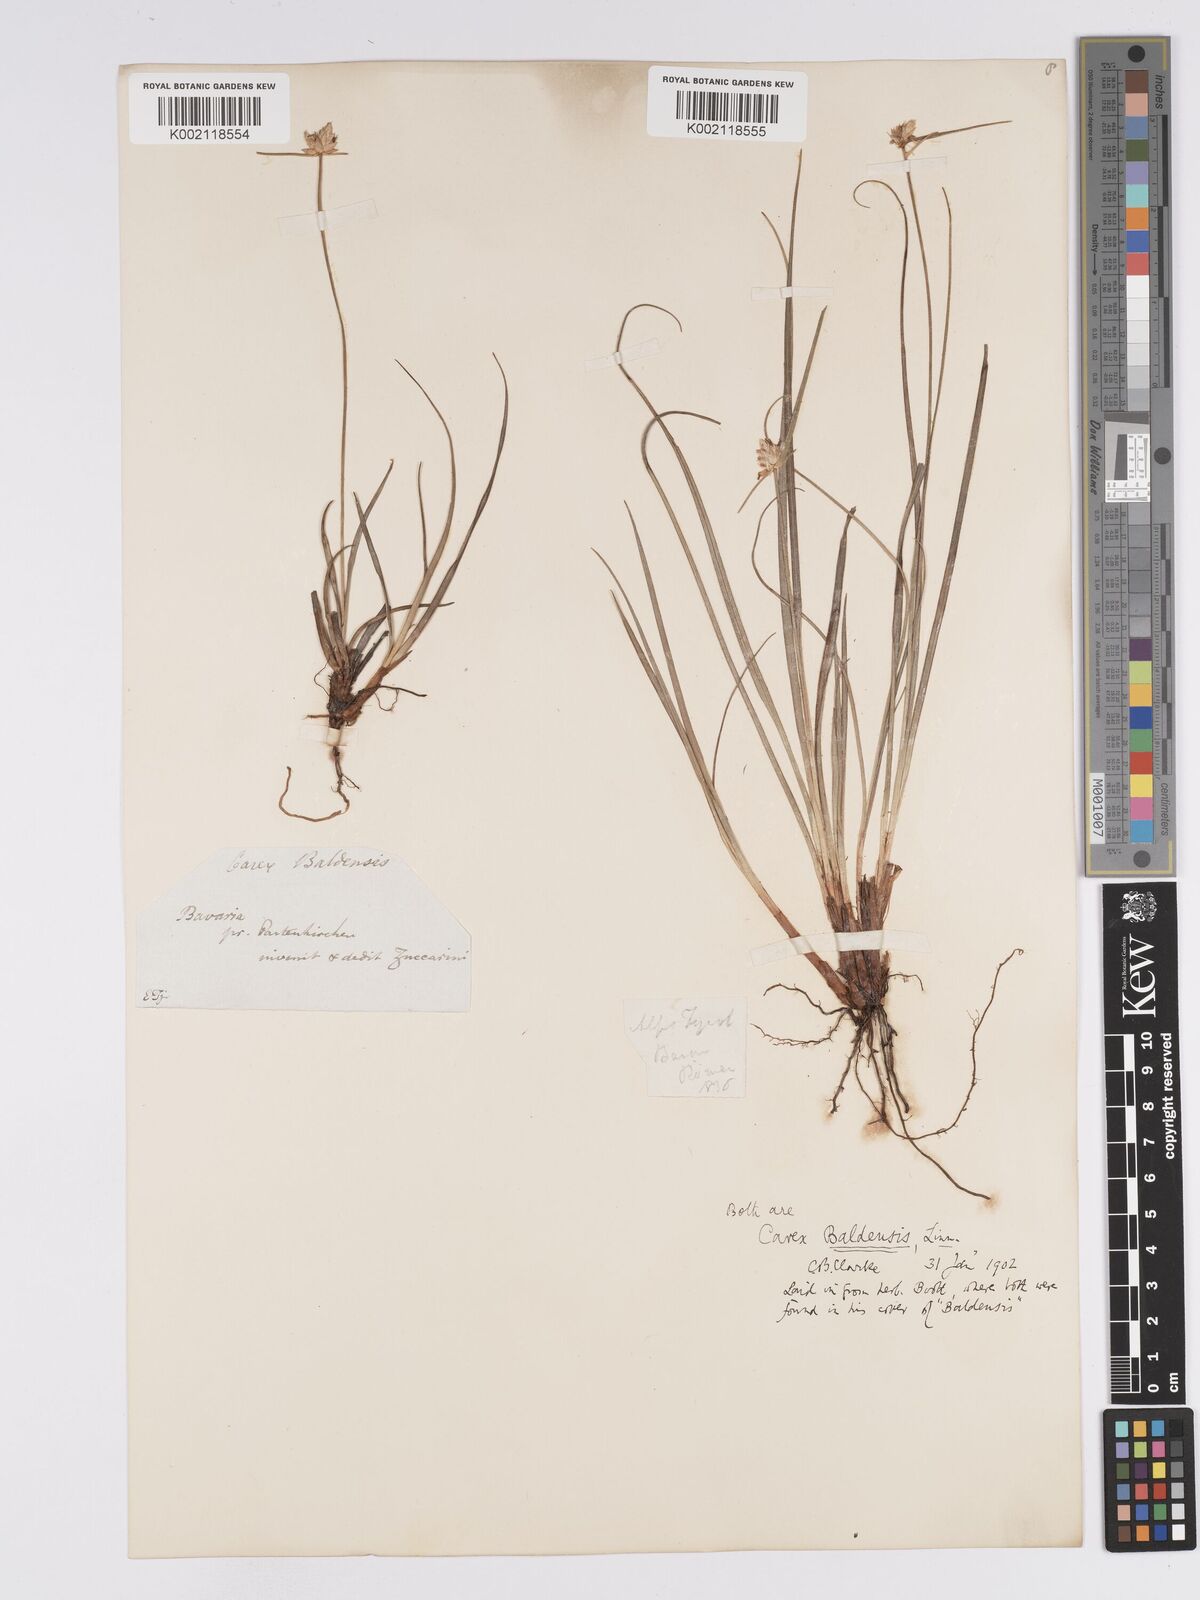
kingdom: Plantae
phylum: Tracheophyta
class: Liliopsida
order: Poales
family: Cyperaceae
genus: Carex
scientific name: Carex baldensis
